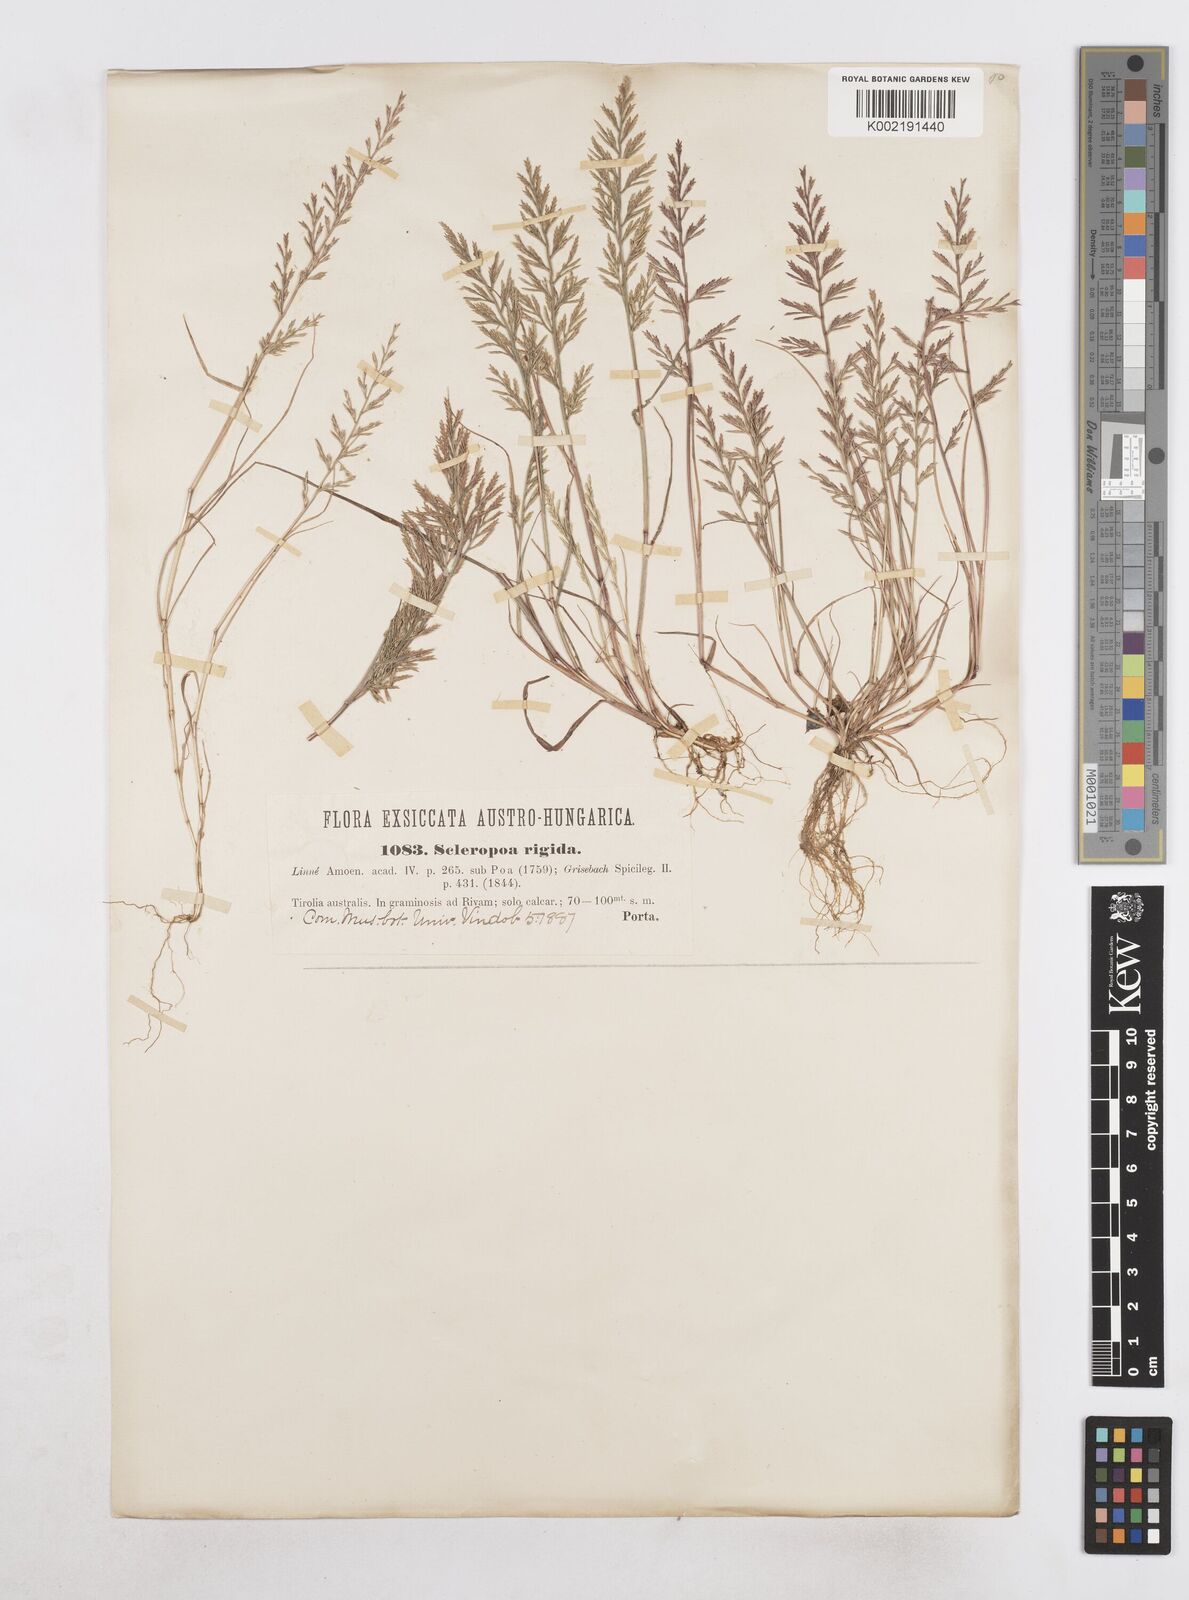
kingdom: Plantae
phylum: Tracheophyta
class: Liliopsida
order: Poales
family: Poaceae
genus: Catapodium
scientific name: Catapodium rigidum
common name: Fern-grass
